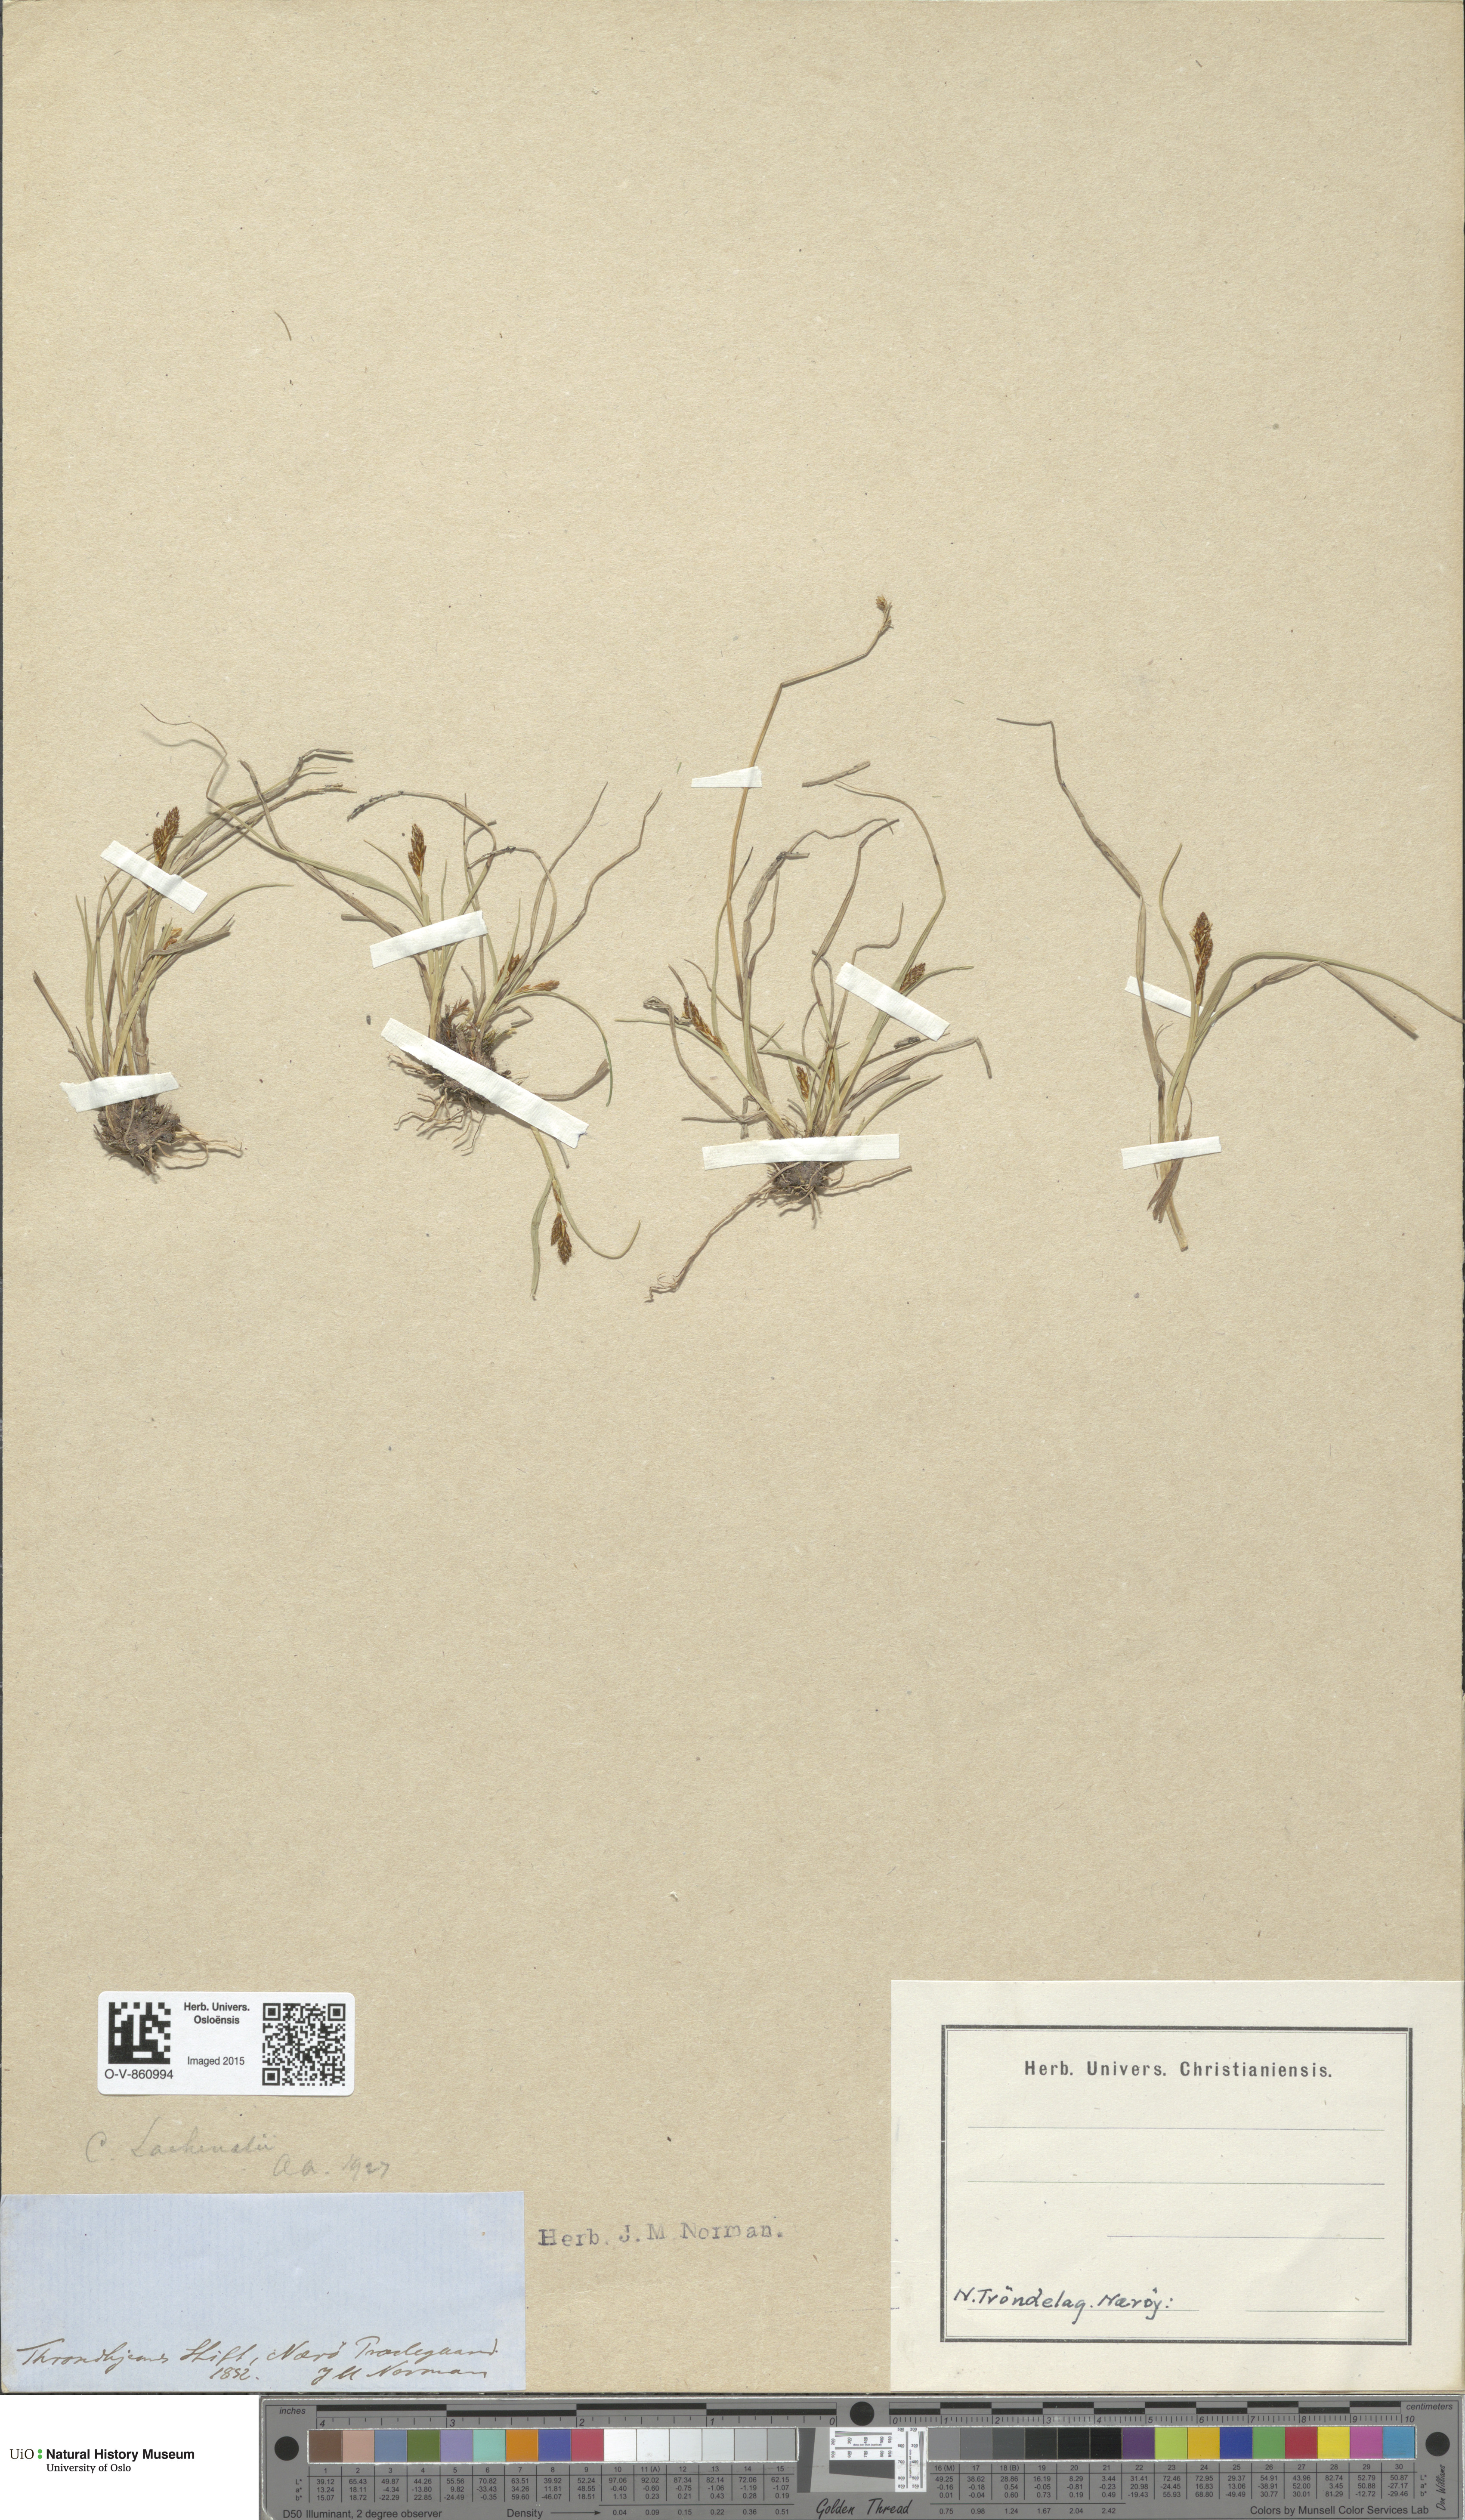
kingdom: Plantae
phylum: Tracheophyta
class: Liliopsida
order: Poales
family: Cyperaceae
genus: Carex
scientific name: Carex lachenalii
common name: Hare's-foot sedge
